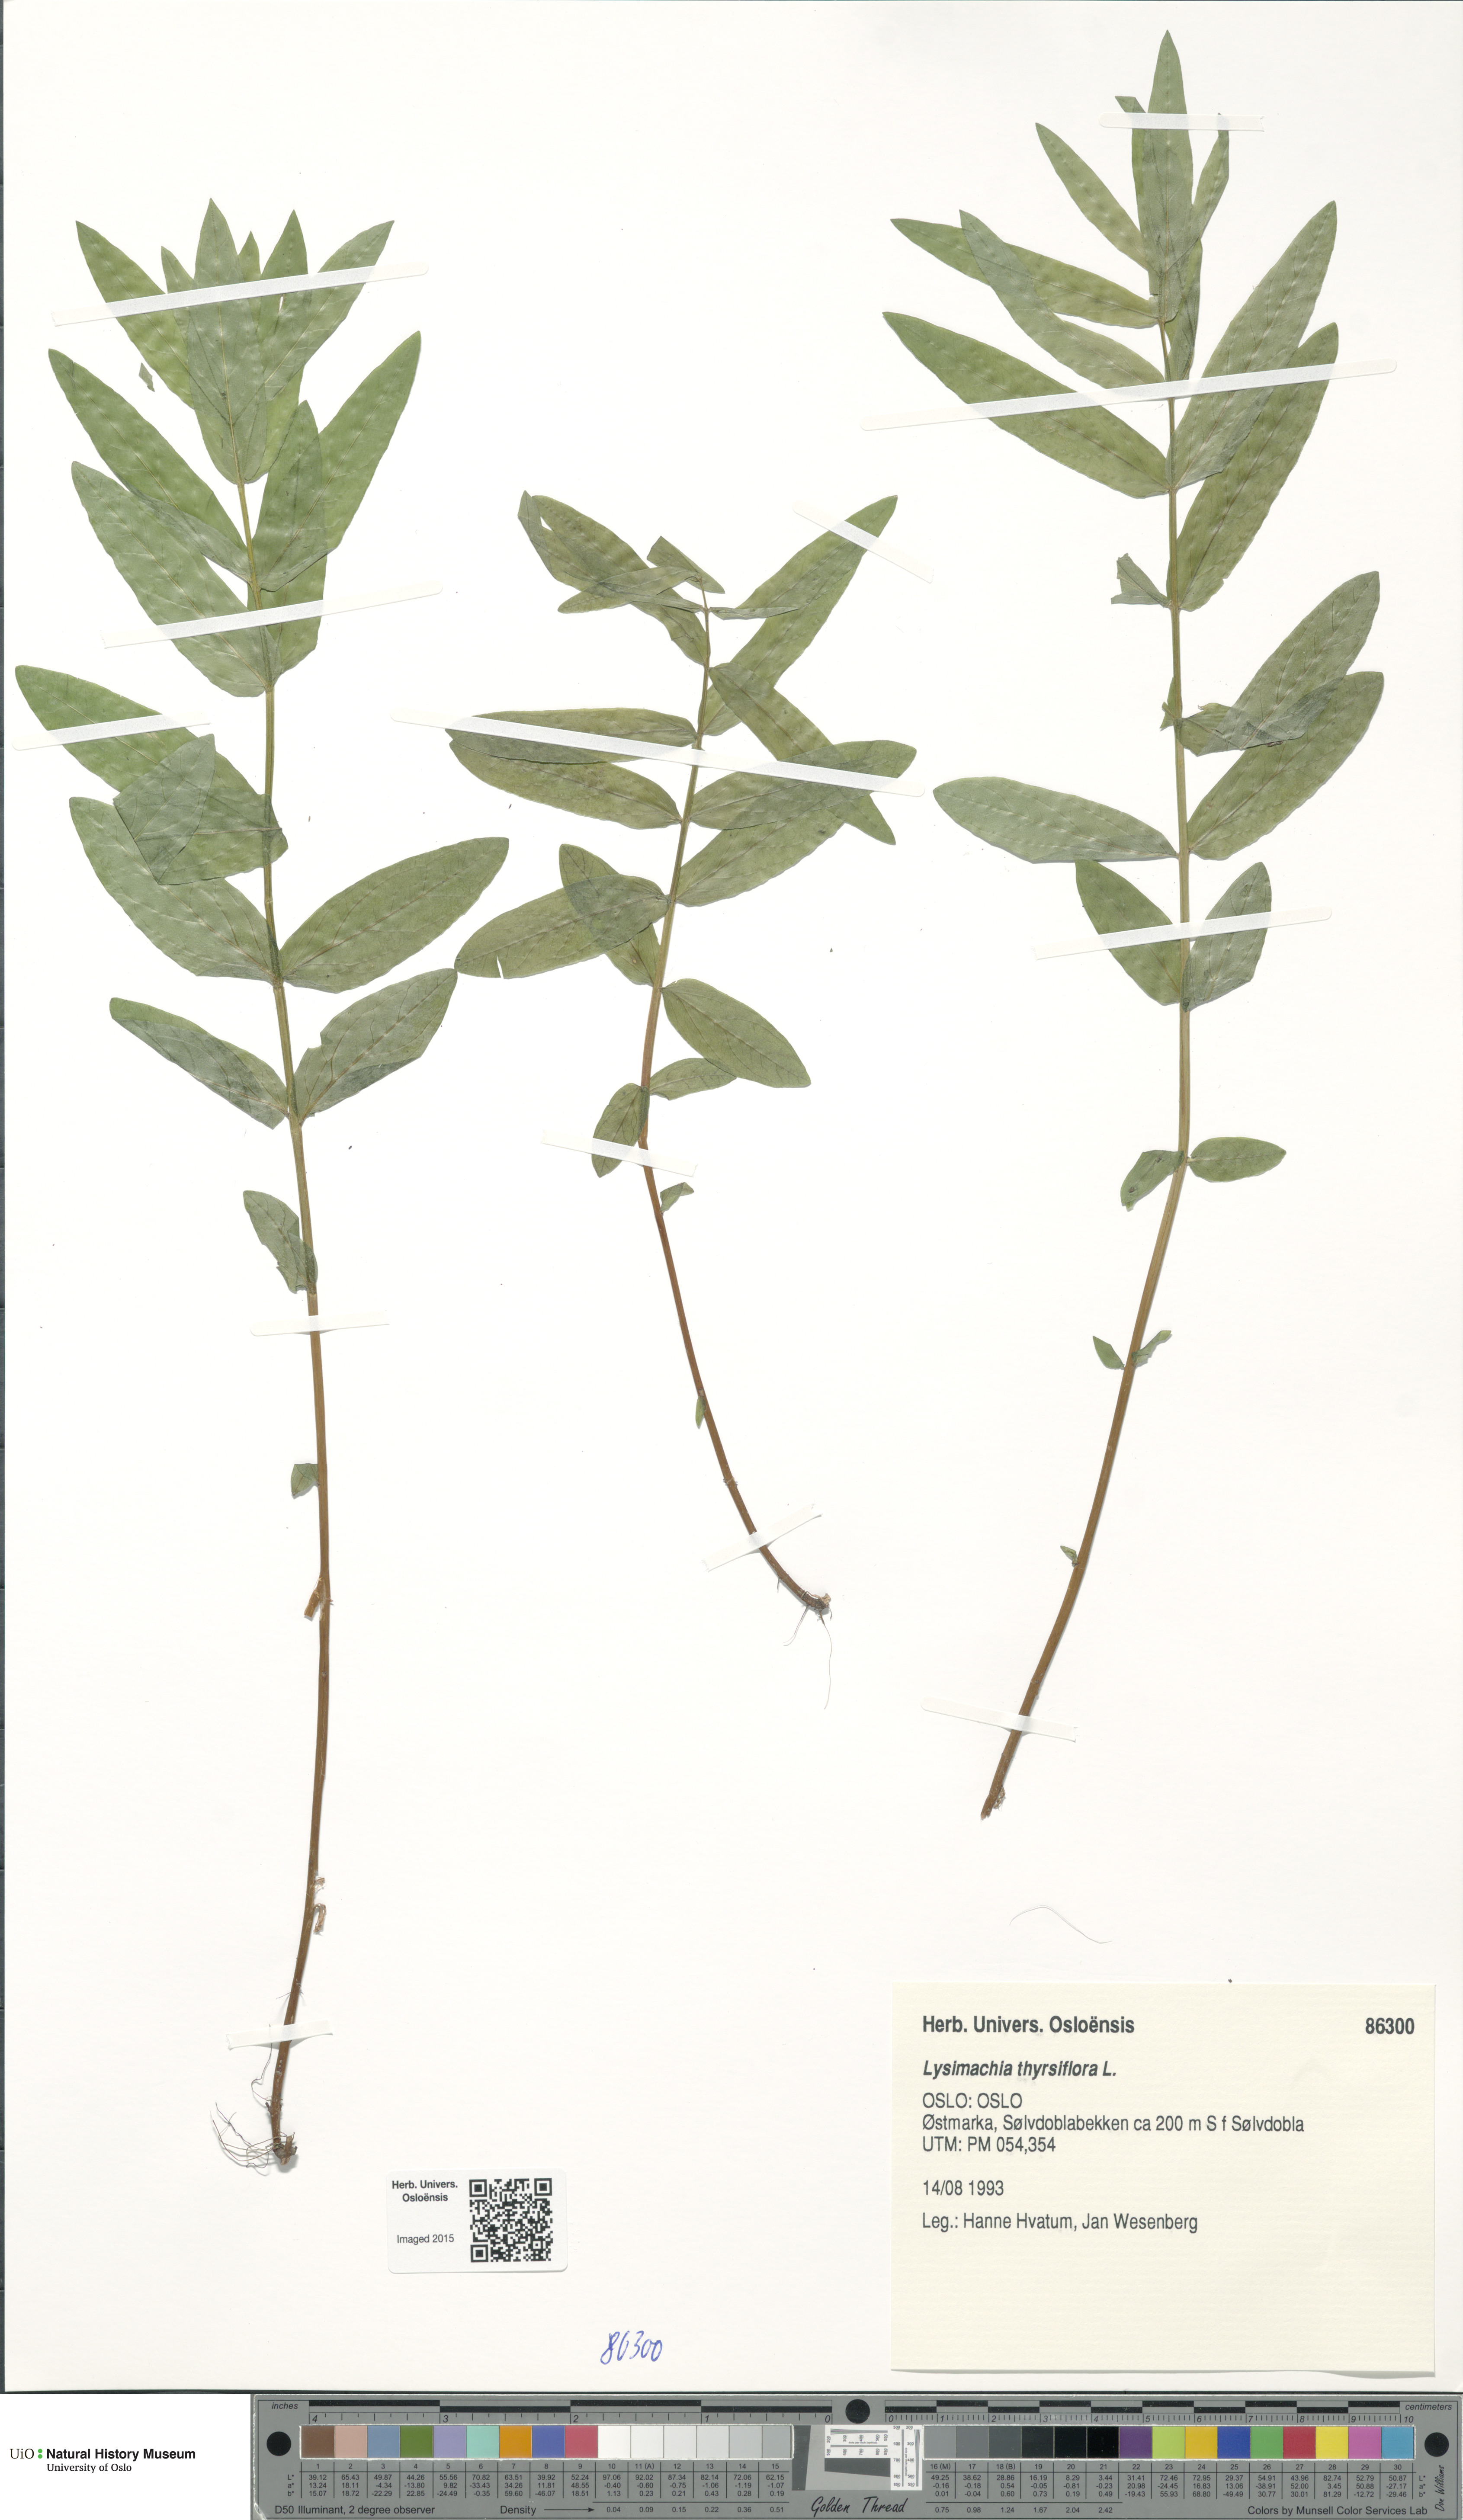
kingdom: Plantae
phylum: Tracheophyta
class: Magnoliopsida
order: Ericales
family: Primulaceae
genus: Lysimachia
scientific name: Lysimachia thyrsiflora
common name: Tufted loosestrife
